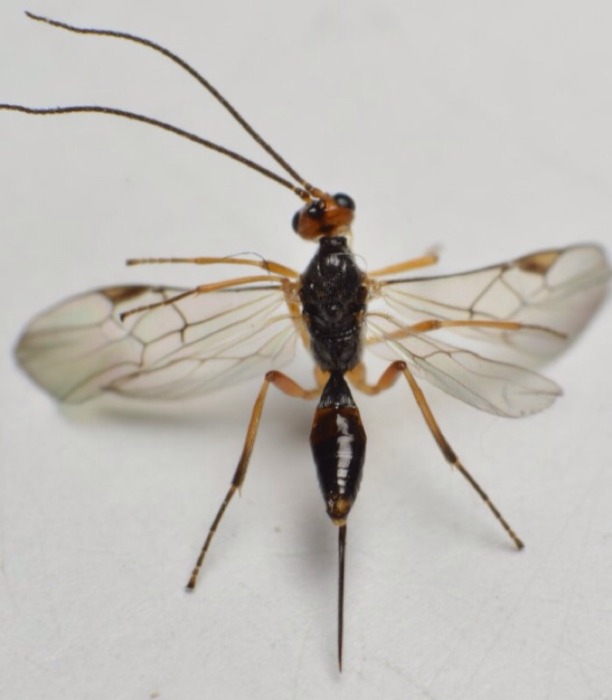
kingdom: Animalia
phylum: Arthropoda
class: Insecta
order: Hymenoptera
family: Braconidae
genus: Meteorus
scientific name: Meteorus ictericus
